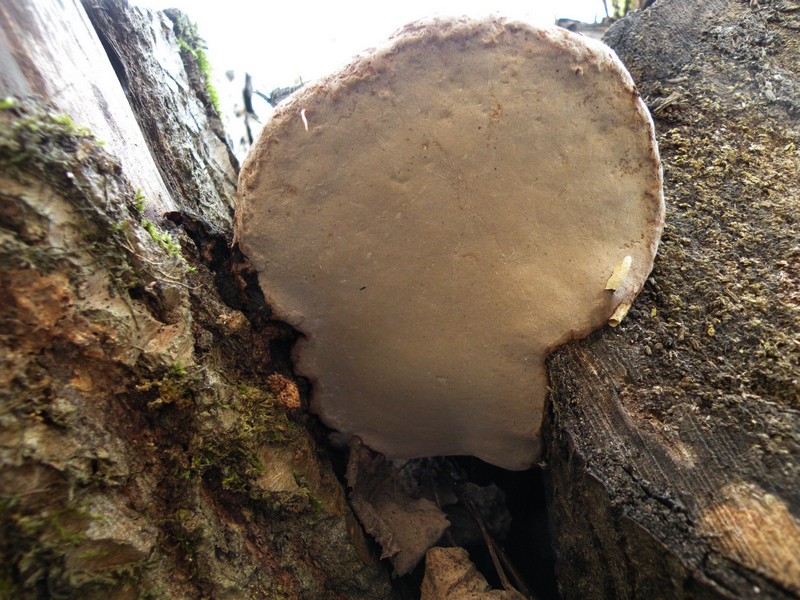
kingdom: Fungi
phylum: Basidiomycota
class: Agaricomycetes
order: Polyporales
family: Polyporaceae
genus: Fomes
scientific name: Fomes fomentarius
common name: tøndersvamp
